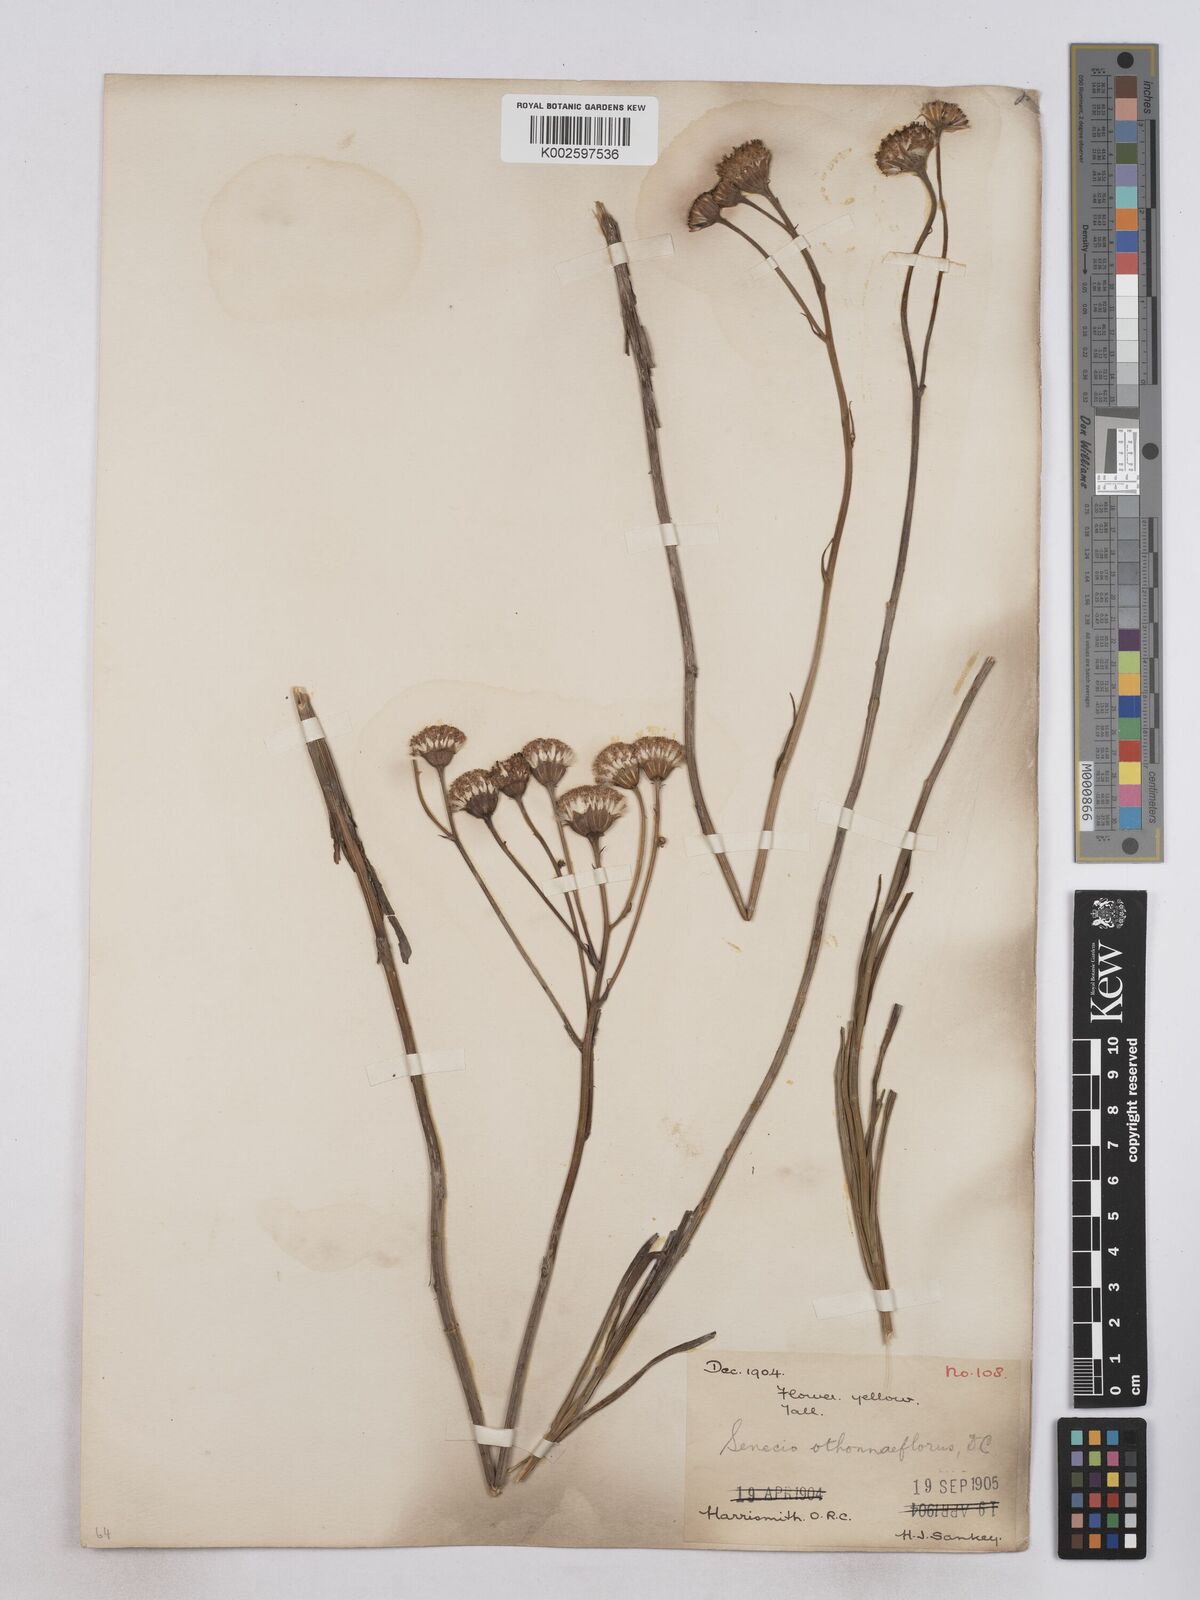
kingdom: Plantae
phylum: Tracheophyta
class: Magnoliopsida
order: Asterales
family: Asteraceae
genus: Senecio
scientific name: Senecio othonniflorus
